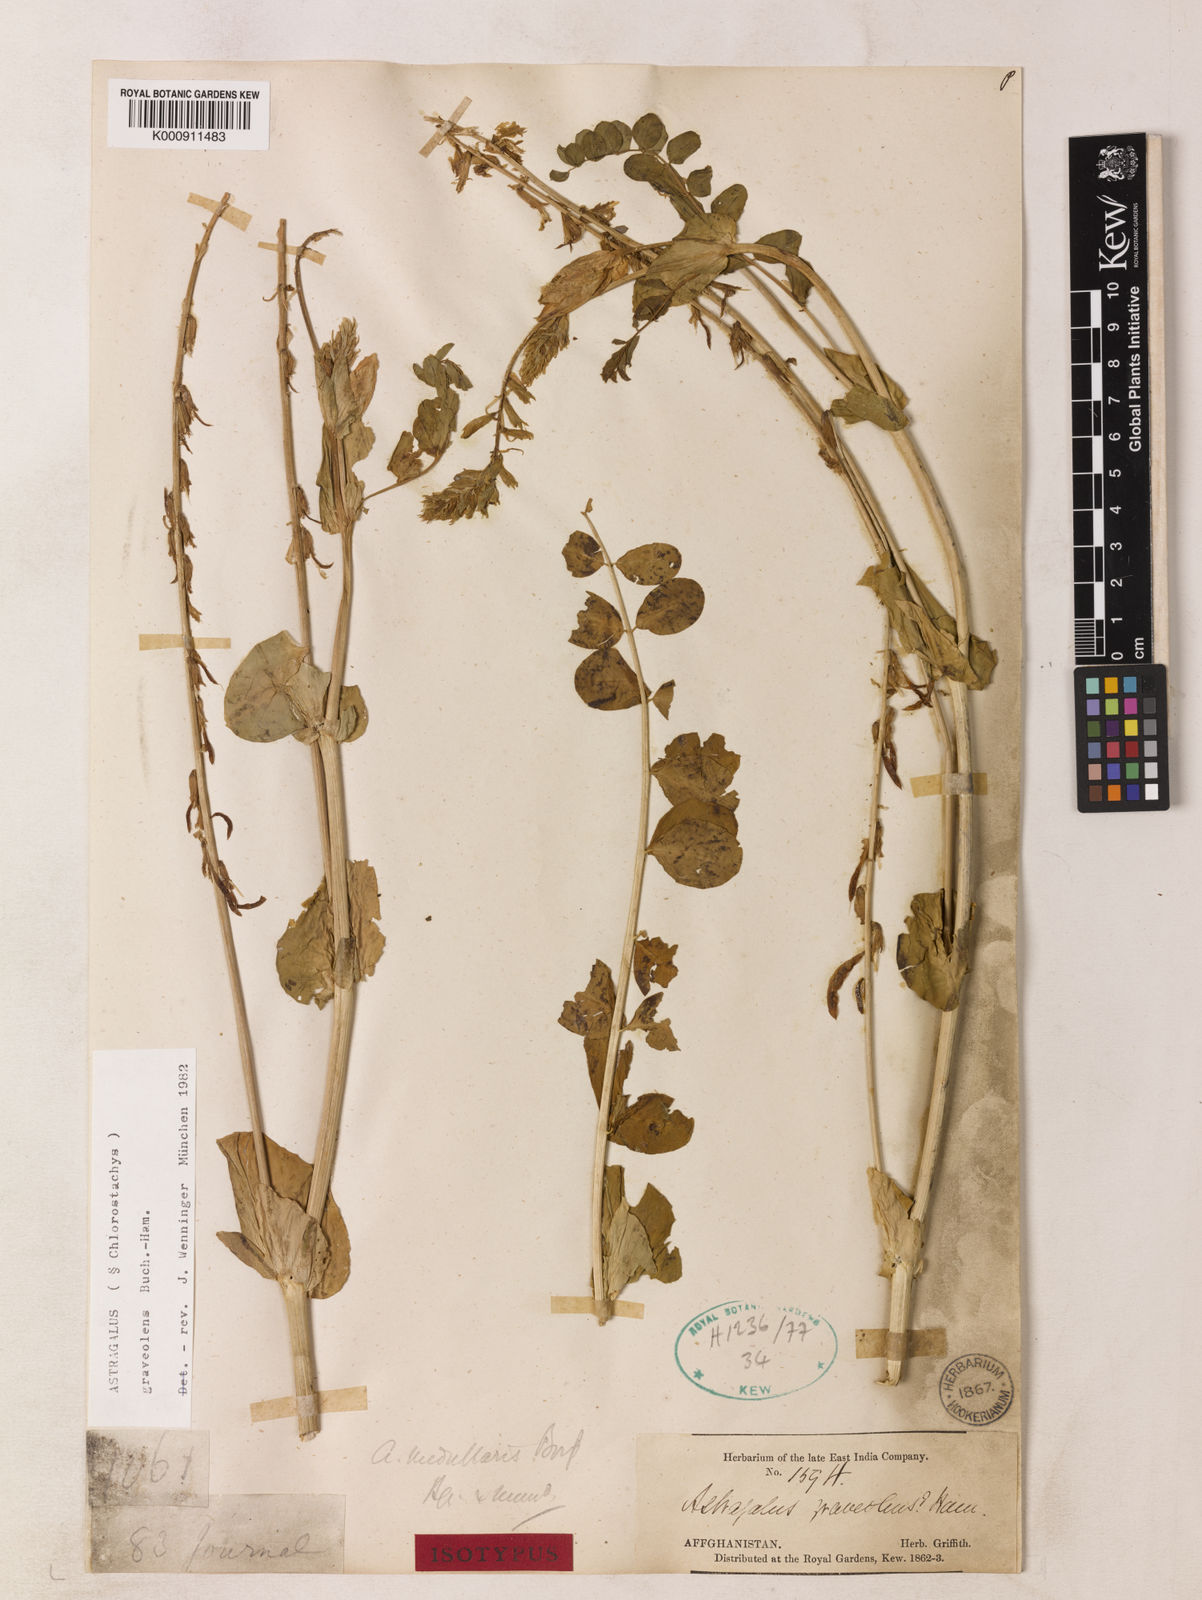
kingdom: Plantae
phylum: Tracheophyta
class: Magnoliopsida
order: Fabales
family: Fabaceae
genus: Astragalus
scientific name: Astragalus
